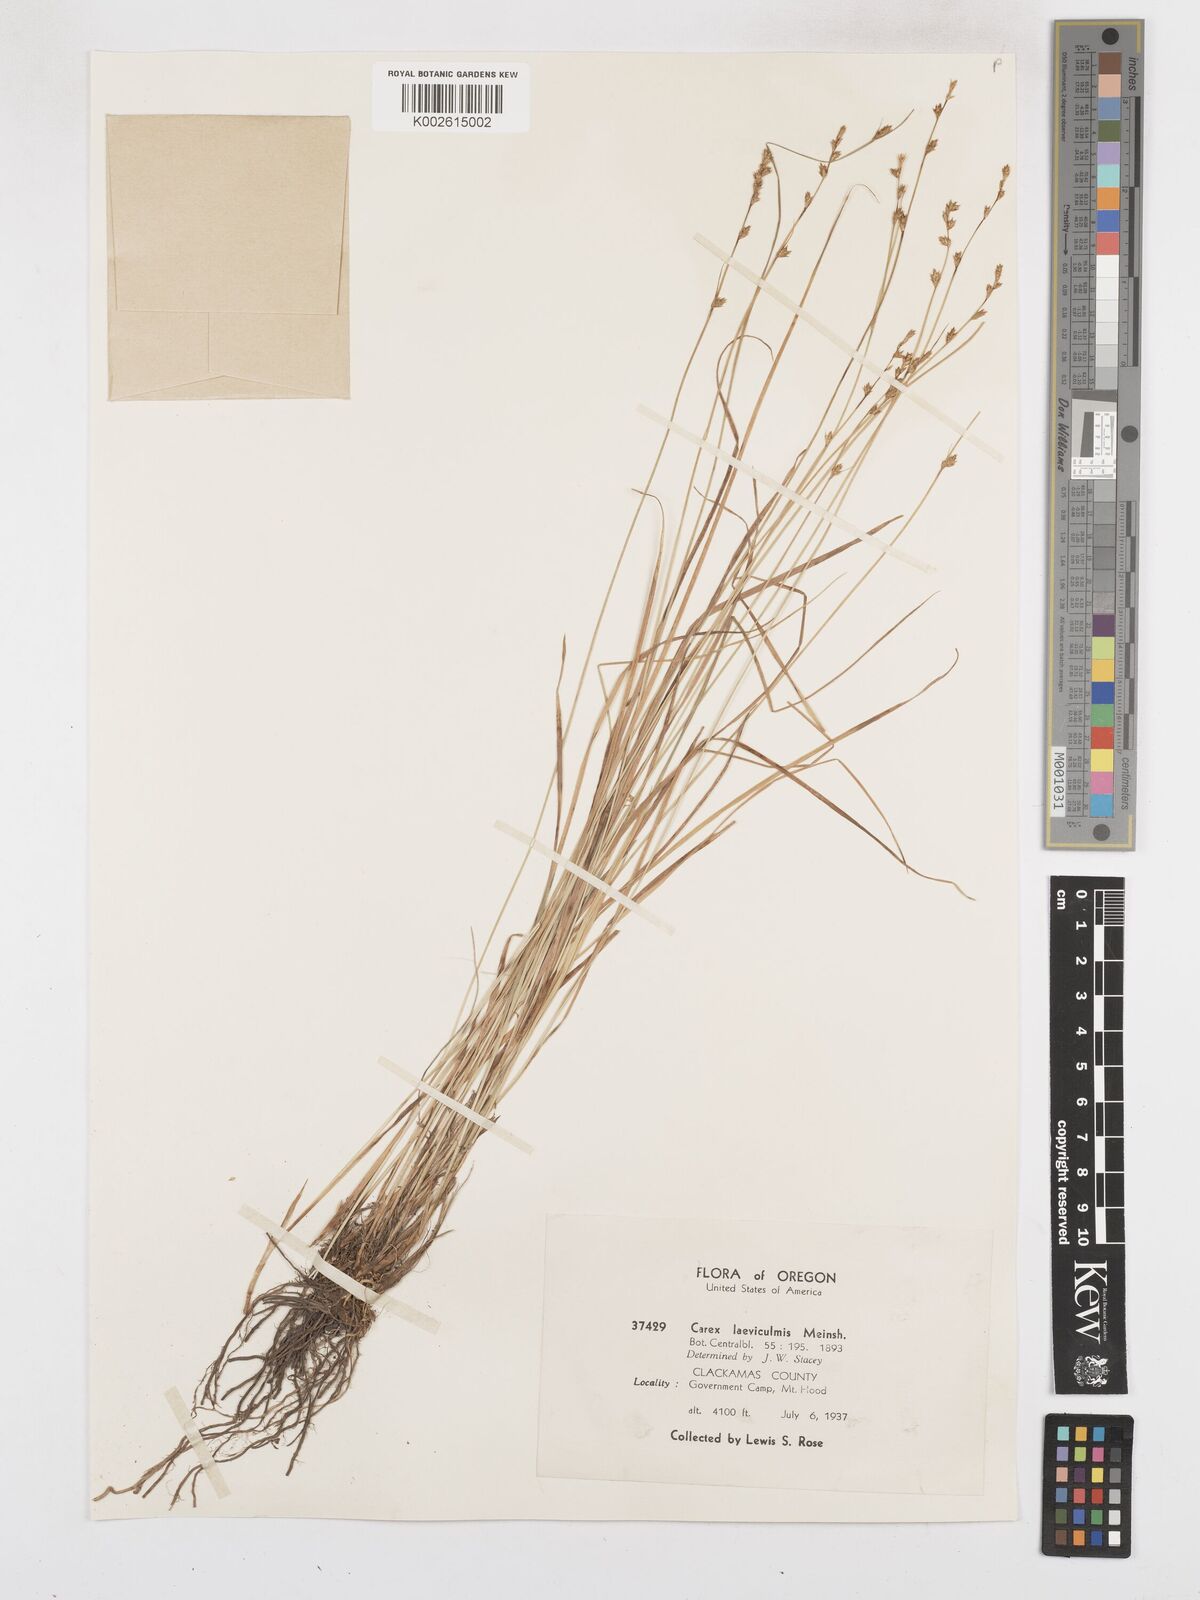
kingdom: Plantae
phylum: Tracheophyta
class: Liliopsida
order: Poales
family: Cyperaceae
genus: Carex
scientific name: Carex laeviculmis
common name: Smooth sedge
